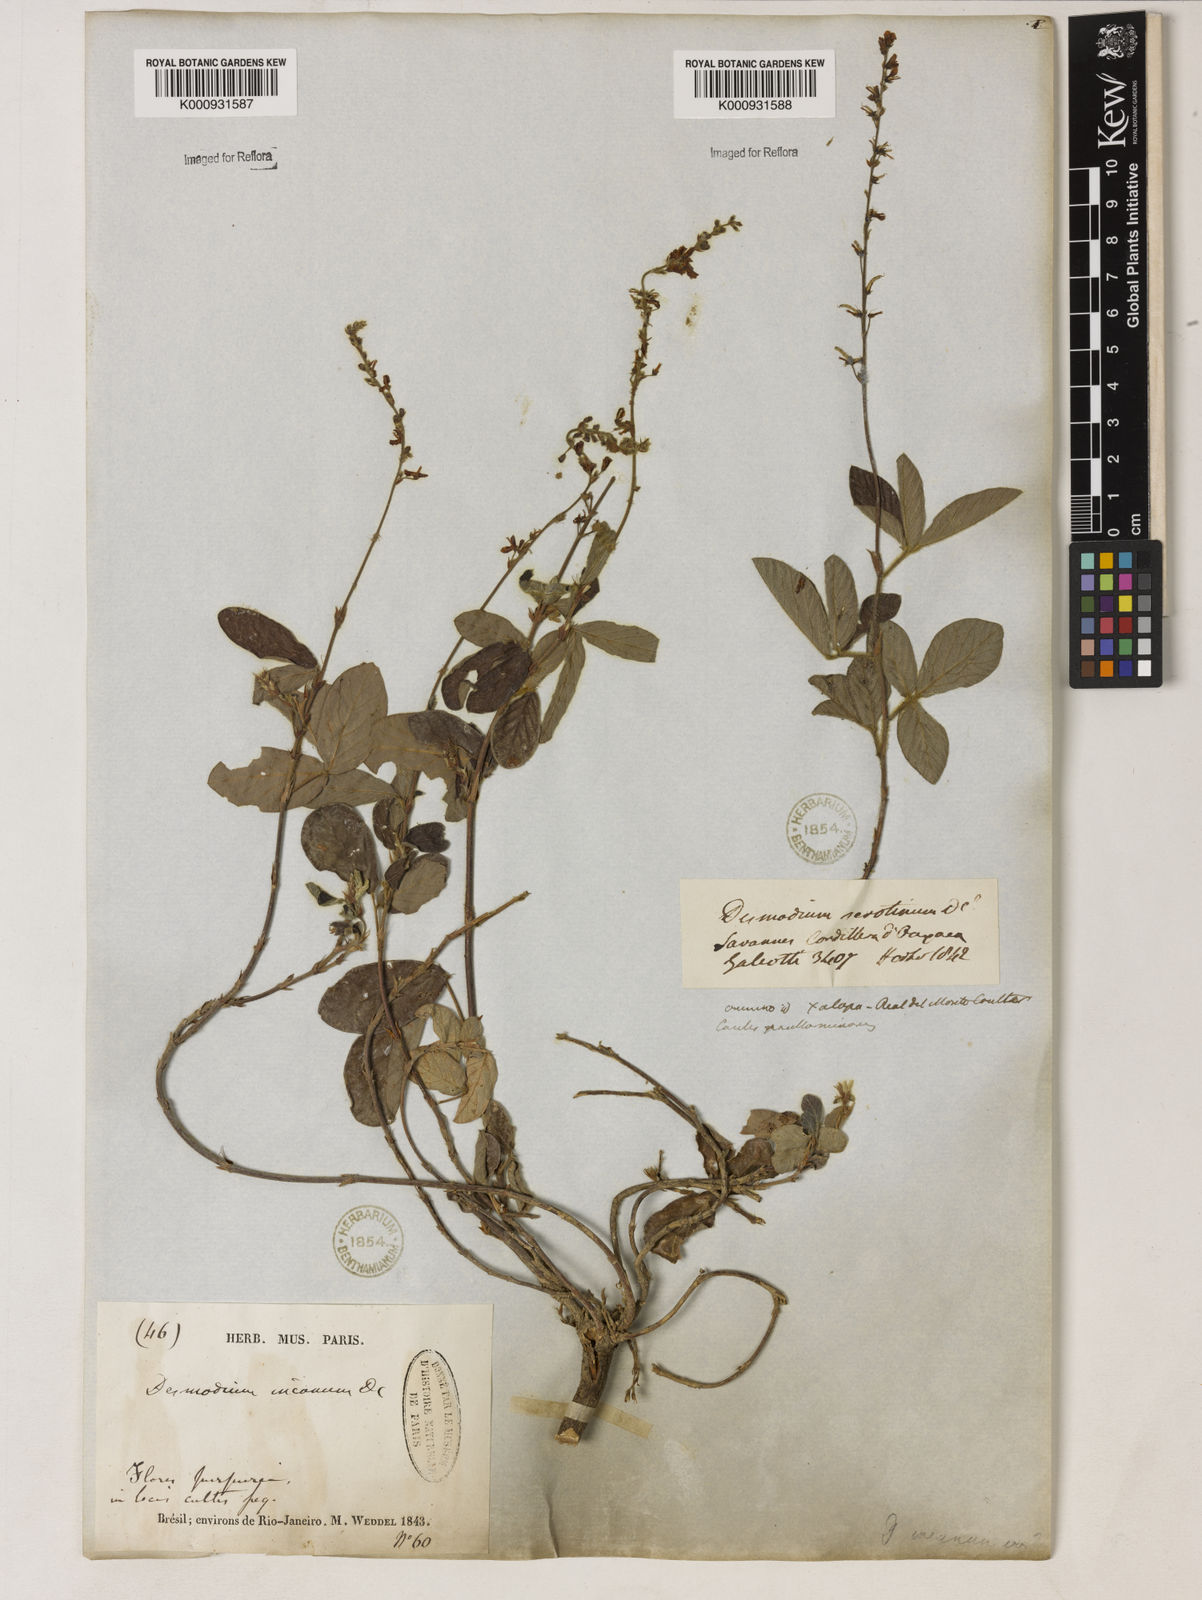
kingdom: Plantae
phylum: Tracheophyta
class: Magnoliopsida
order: Fabales
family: Fabaceae
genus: Desmodium
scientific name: Desmodium incanum
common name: Tickclover
